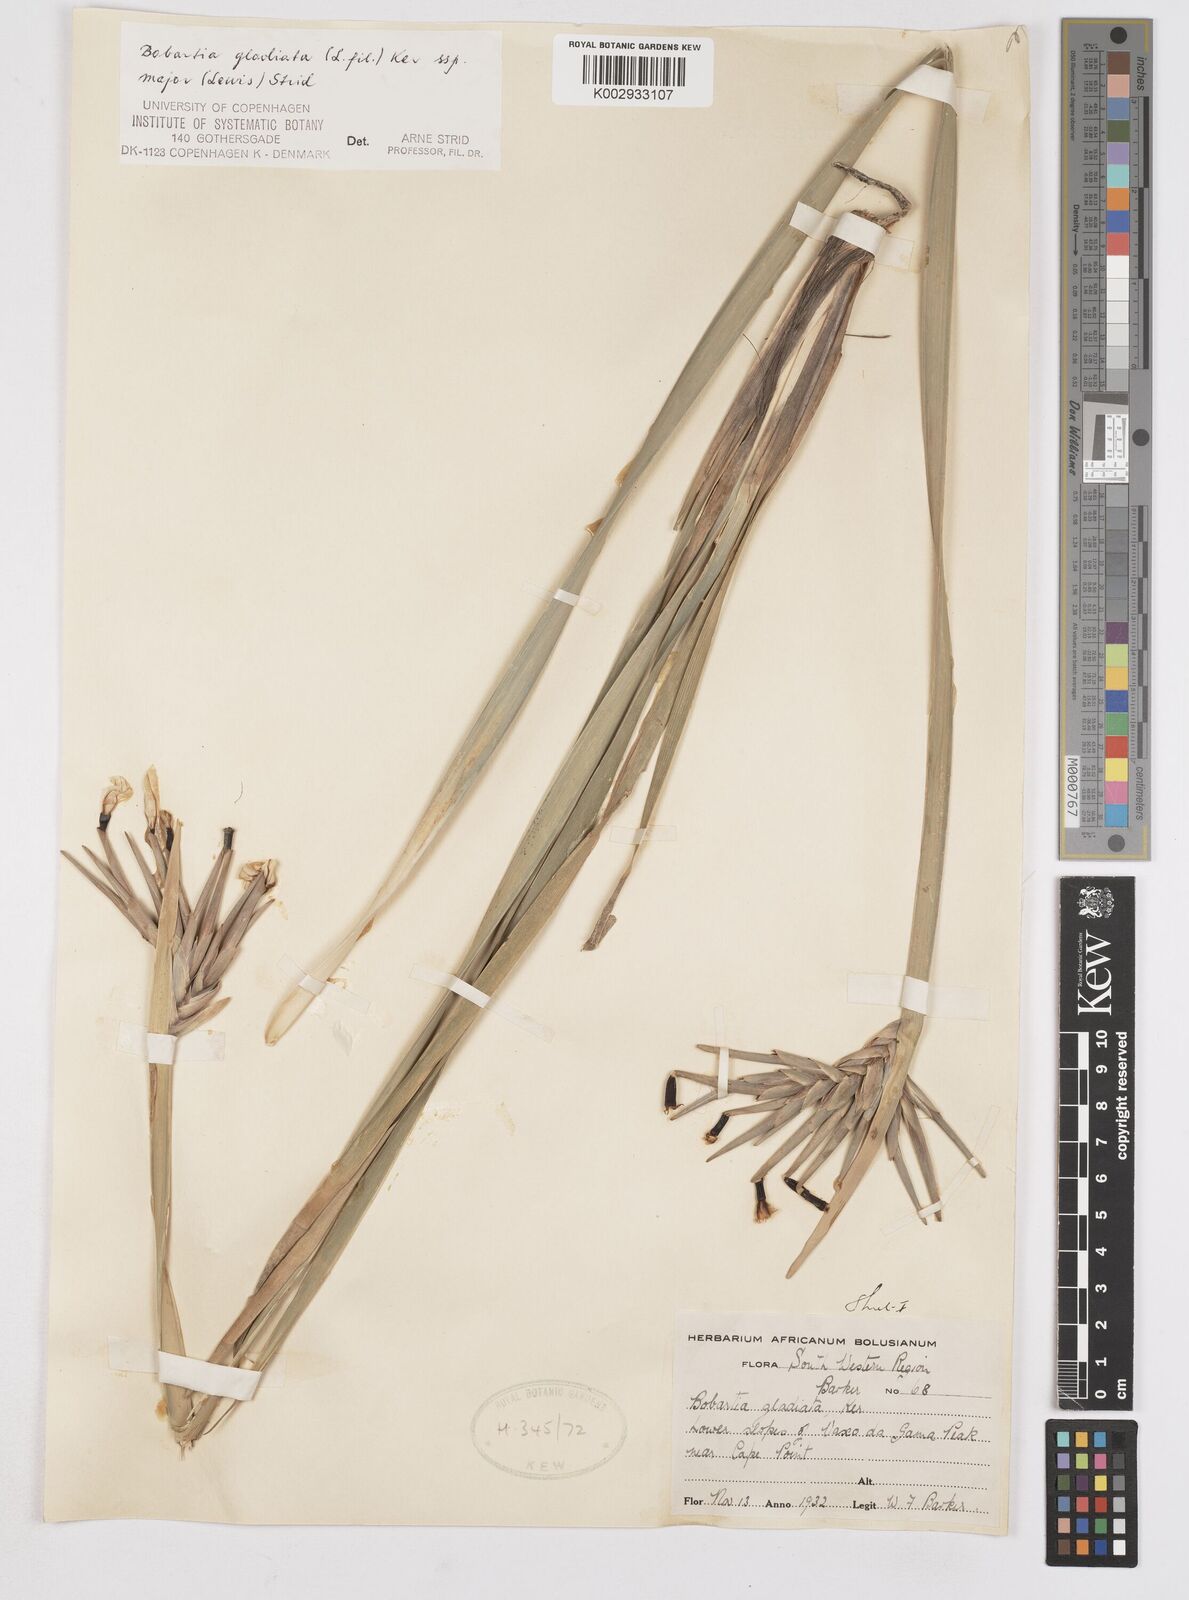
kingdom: Plantae
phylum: Tracheophyta
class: Liliopsida
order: Asparagales
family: Iridaceae
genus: Bobartia
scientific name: Bobartia gladiata
